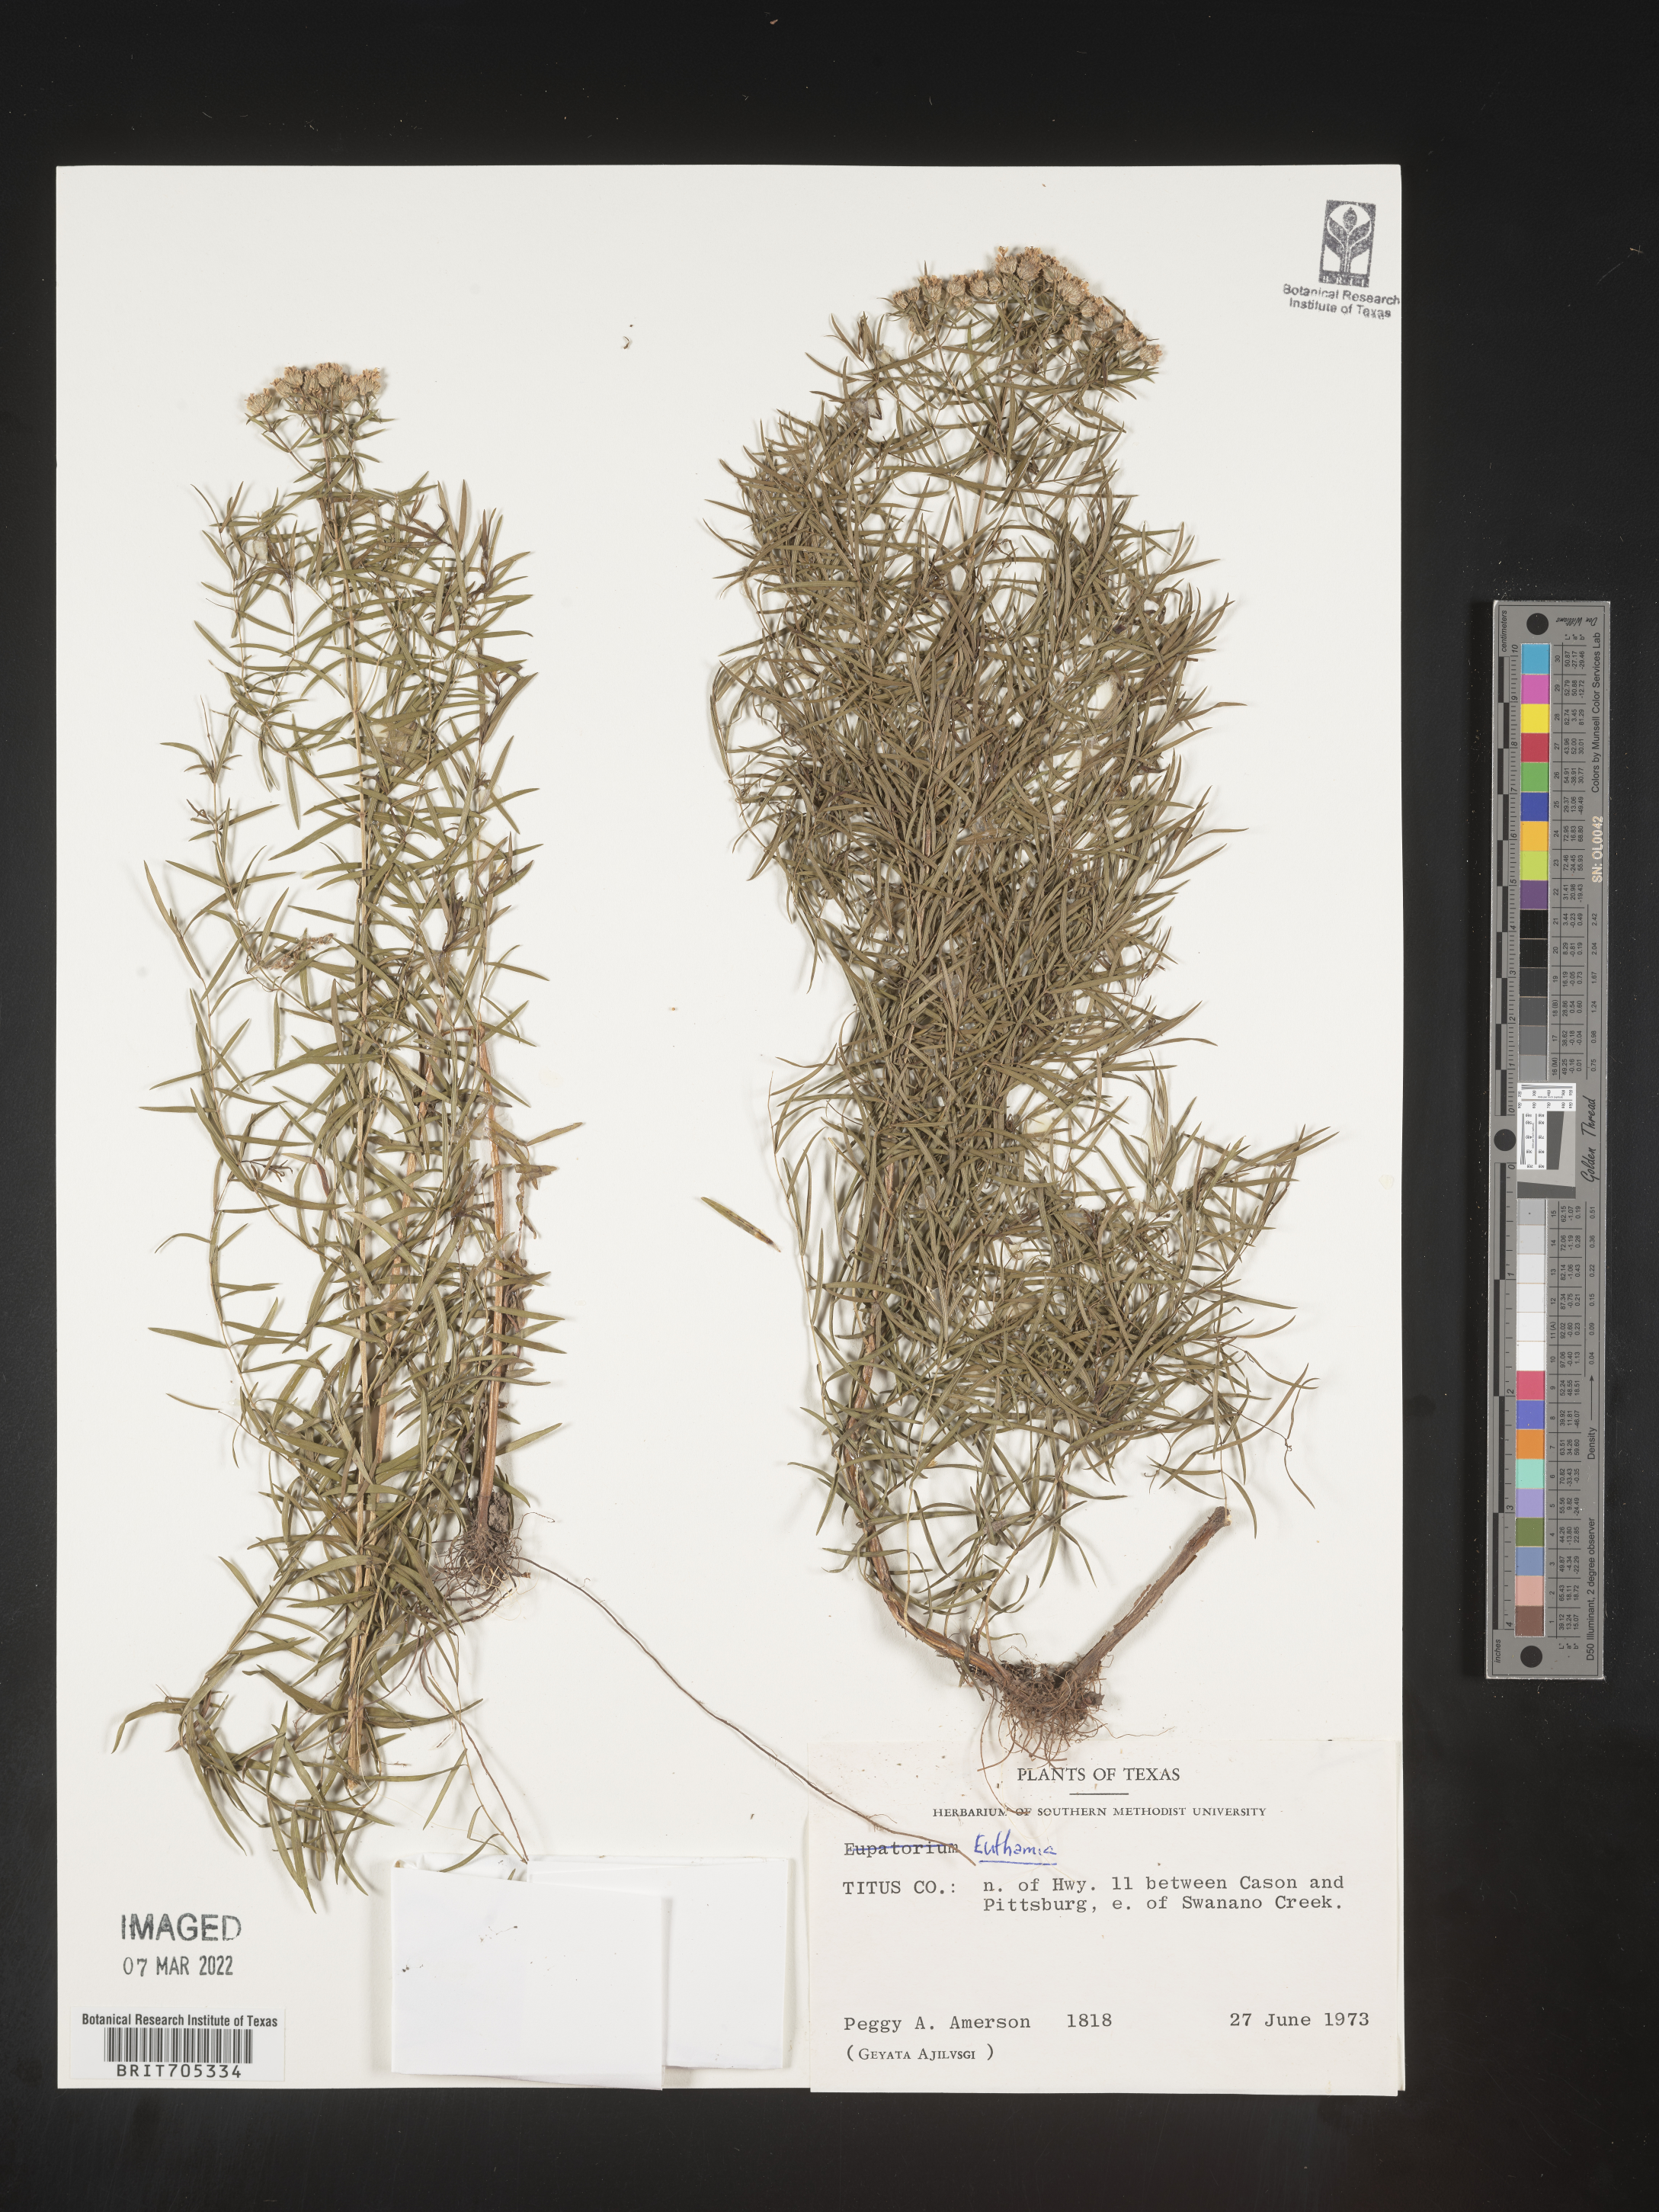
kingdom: Plantae
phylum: Tracheophyta
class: Magnoliopsida
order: Asterales
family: Asteraceae
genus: Euthamia
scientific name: Euthamia caroliniana
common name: Coastal plain goldentop
